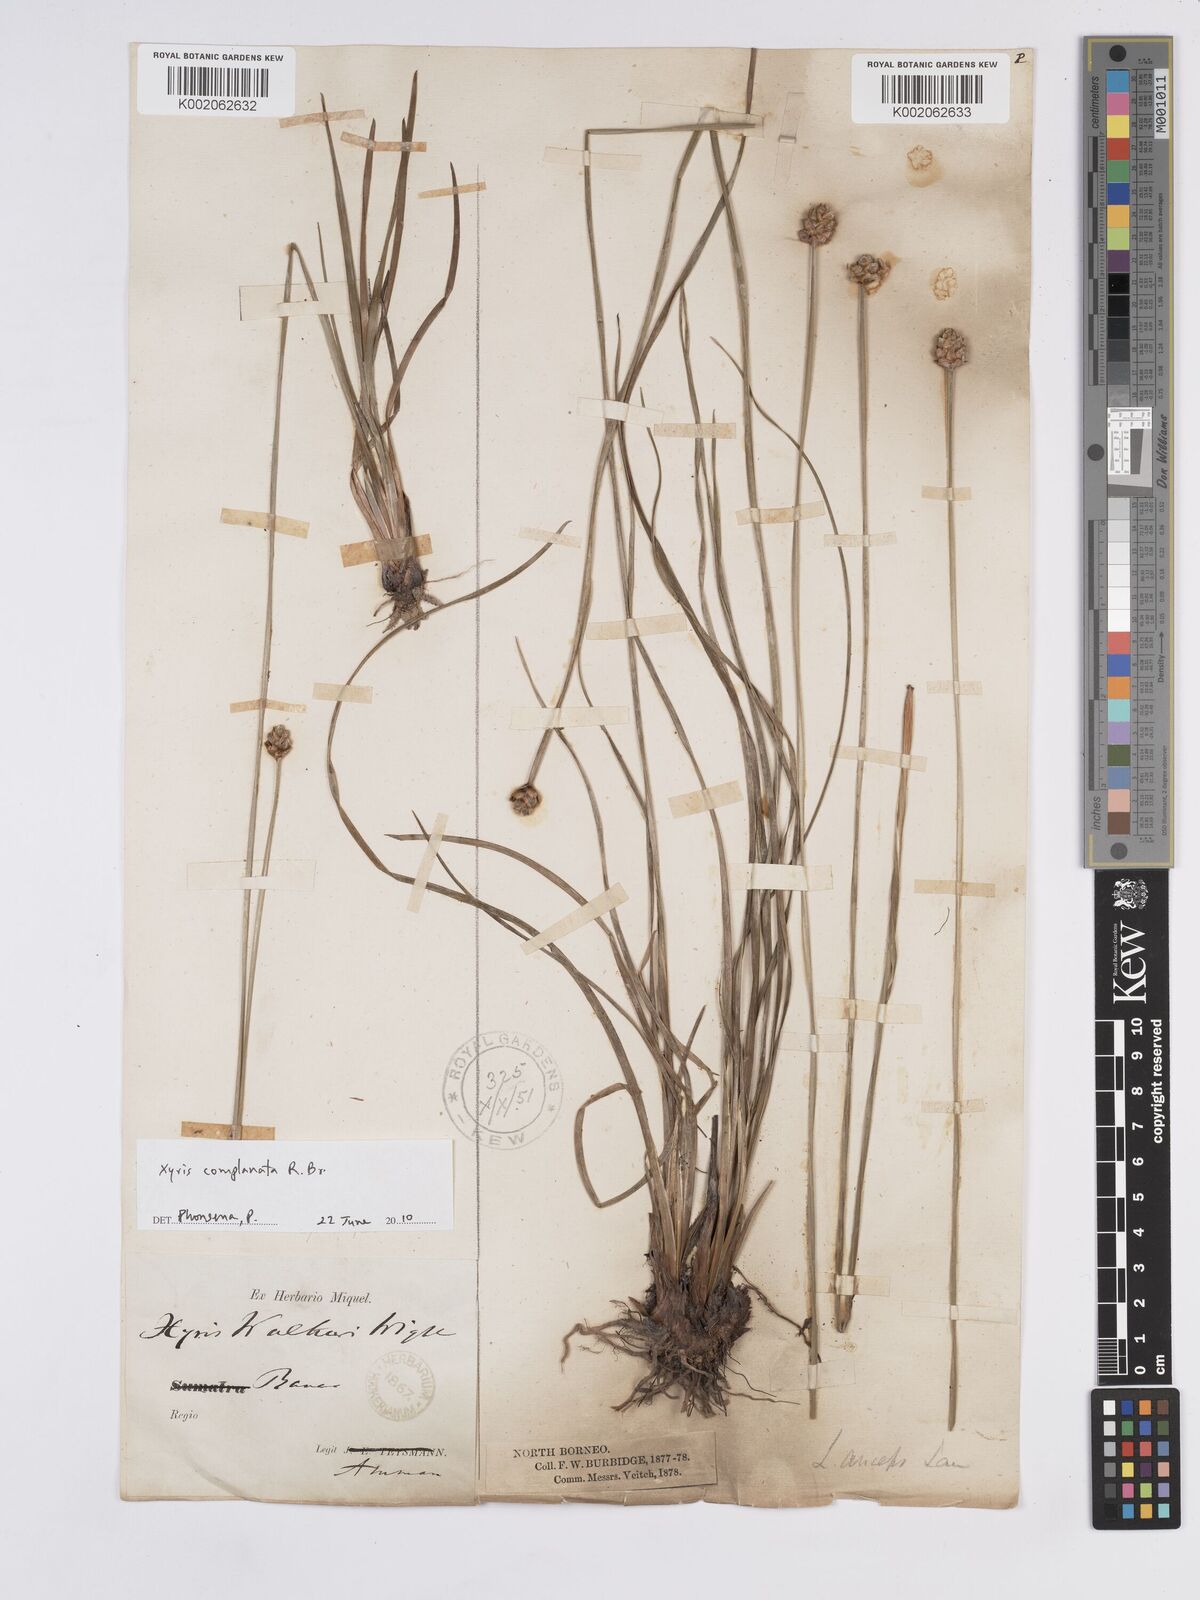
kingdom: Plantae
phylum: Tracheophyta
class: Liliopsida
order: Poales
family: Xyridaceae
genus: Xyris
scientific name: Xyris complanata
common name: Hawai'i yelloweyed grass
